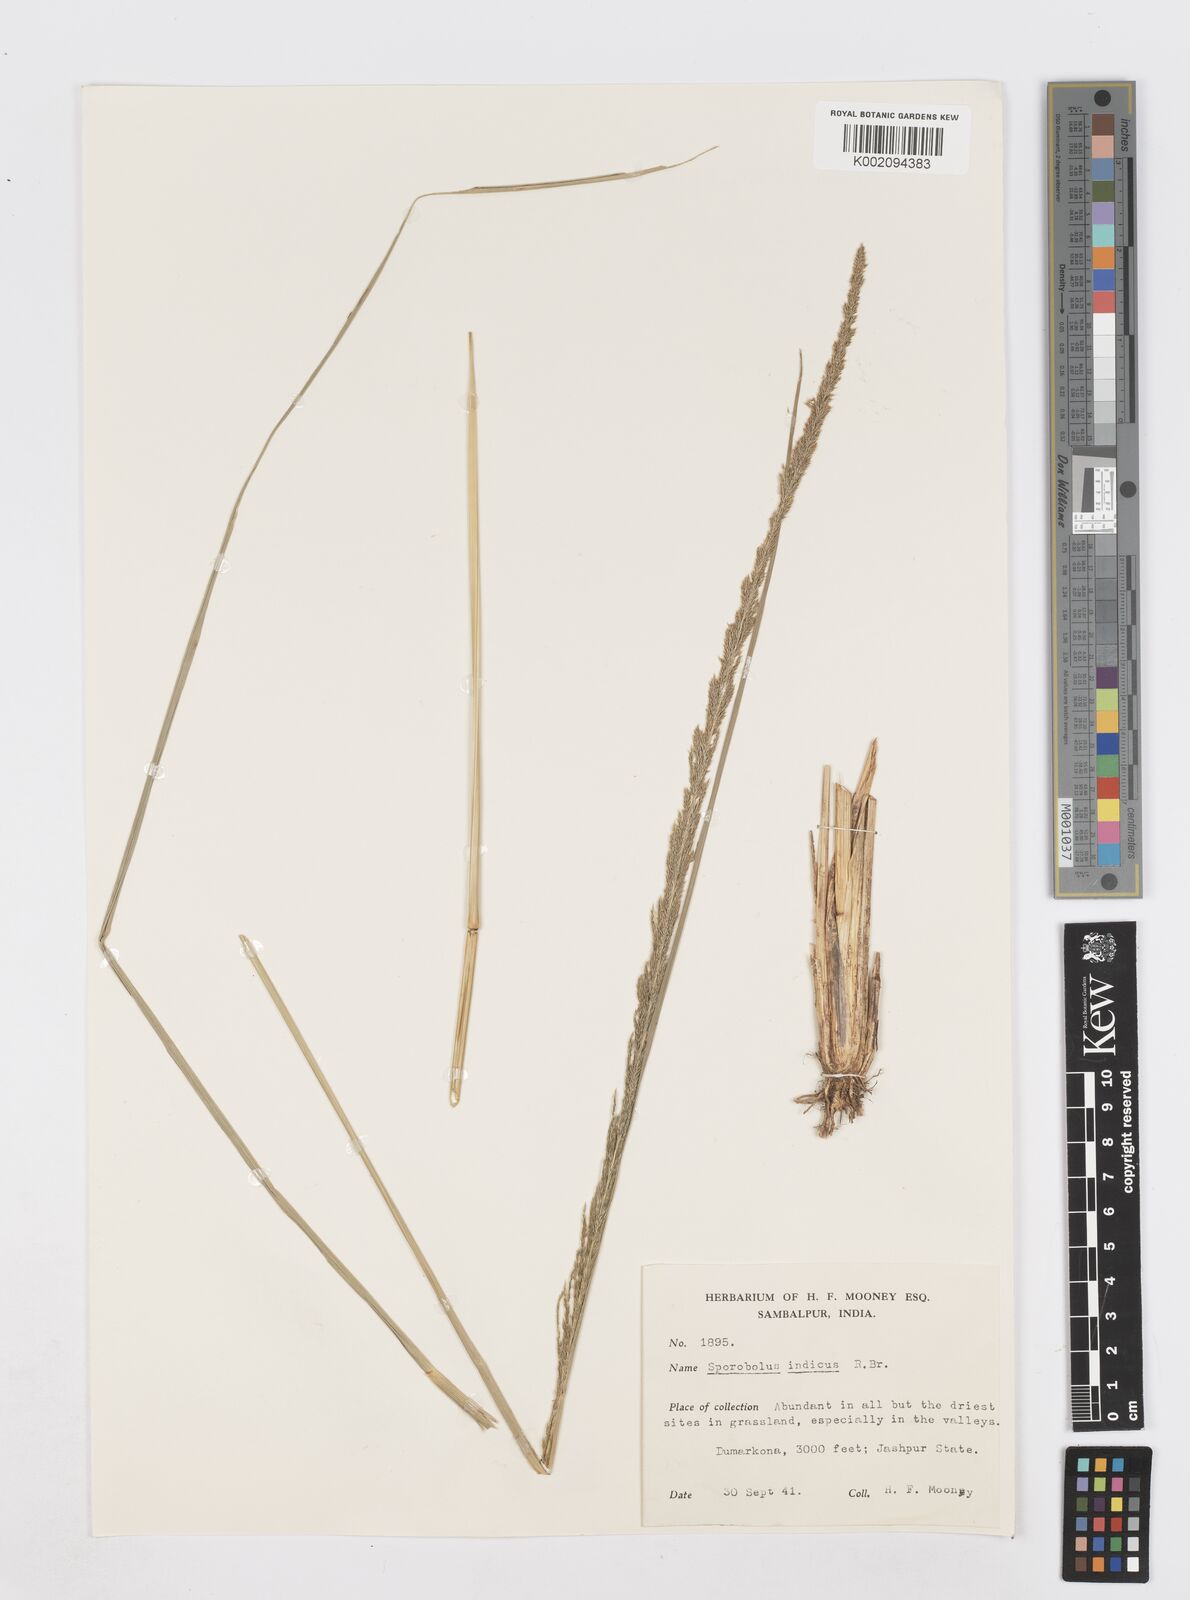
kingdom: Plantae
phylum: Tracheophyta
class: Liliopsida
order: Poales
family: Poaceae
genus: Sporobolus
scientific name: Sporobolus fertilis
